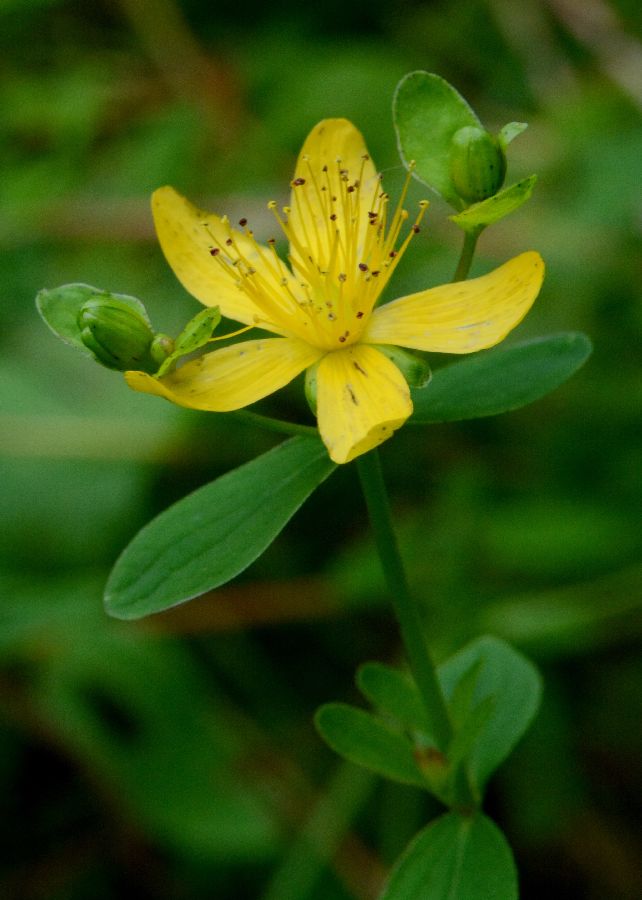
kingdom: Plantae
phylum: Tracheophyta
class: Magnoliopsida
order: Malpighiales
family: Hypericaceae
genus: Hypericum
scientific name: Hypericum maculatum
